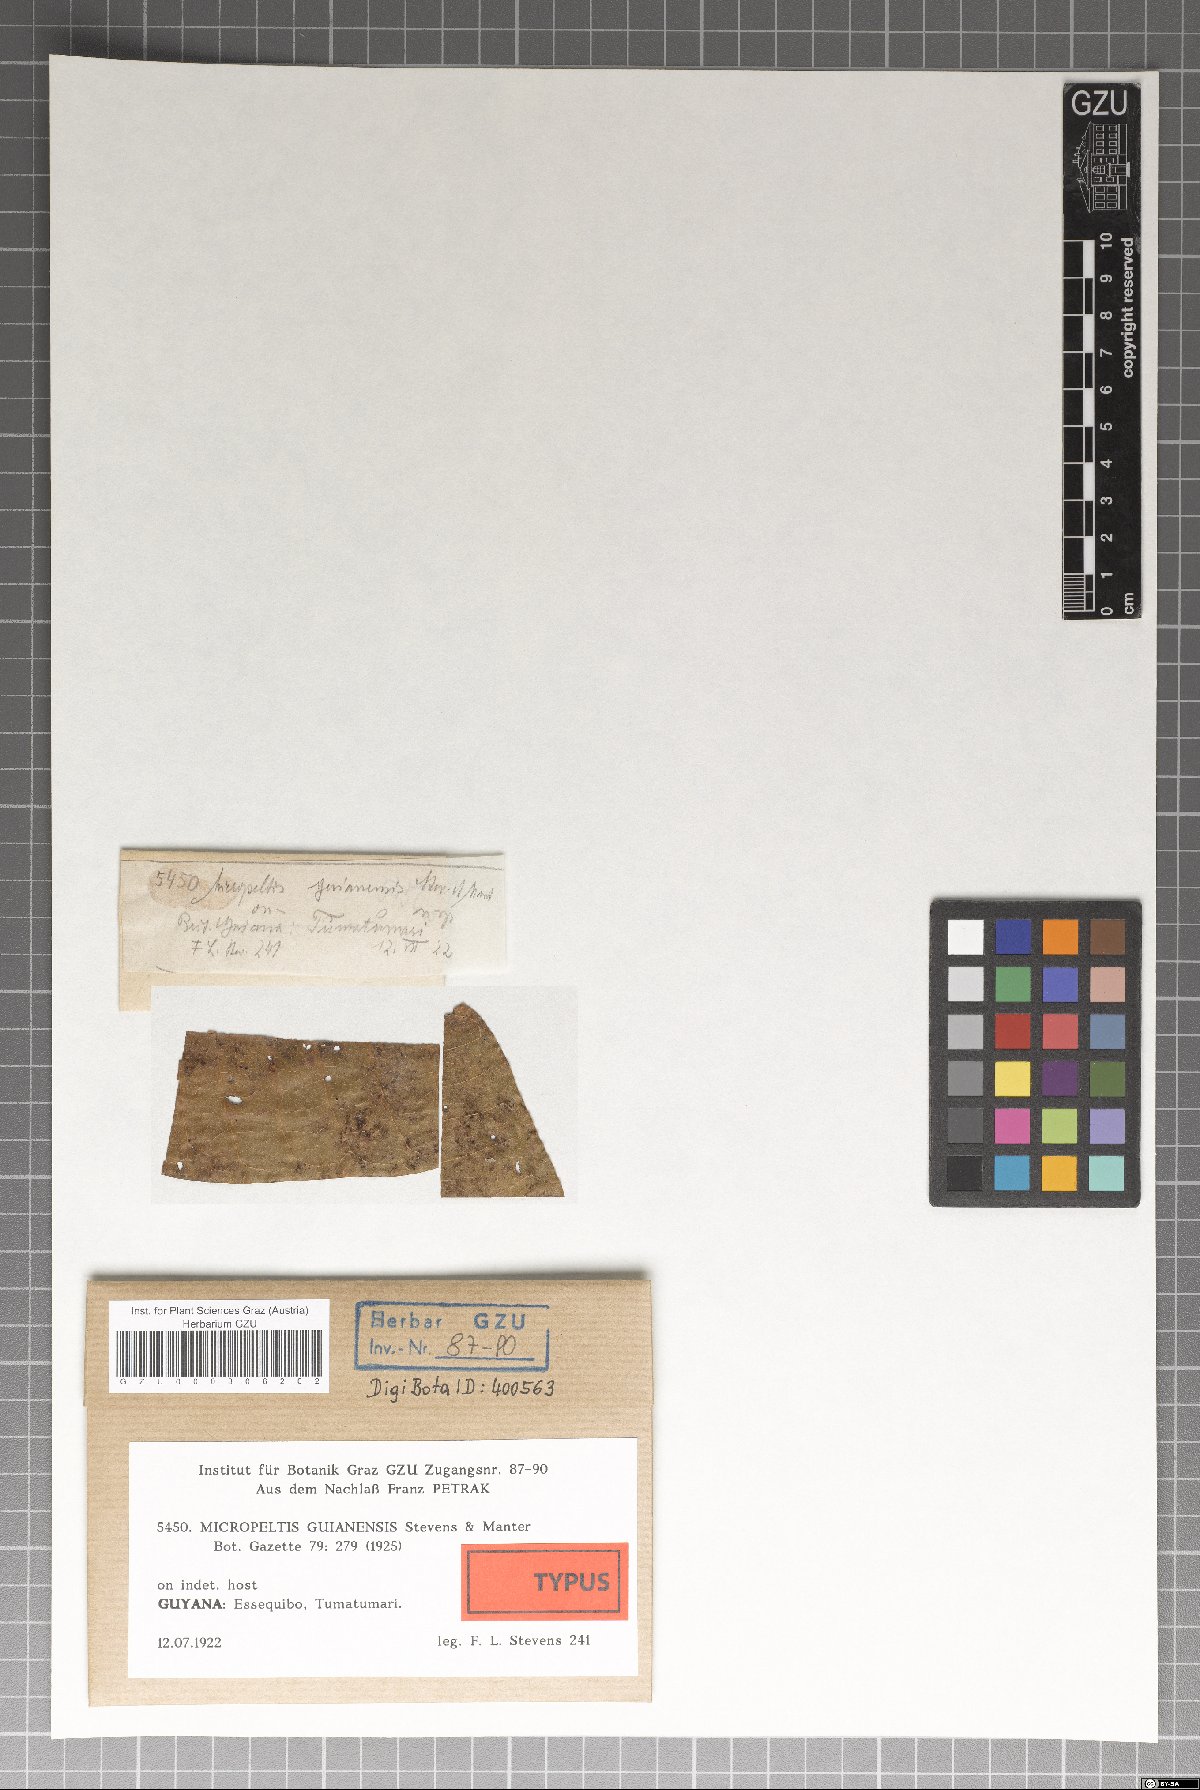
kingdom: Fungi
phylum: Ascomycota
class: Dothideomycetes
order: Microthyriales
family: Micropeltidaceae
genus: Micropeltis
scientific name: Micropeltis guianensis
